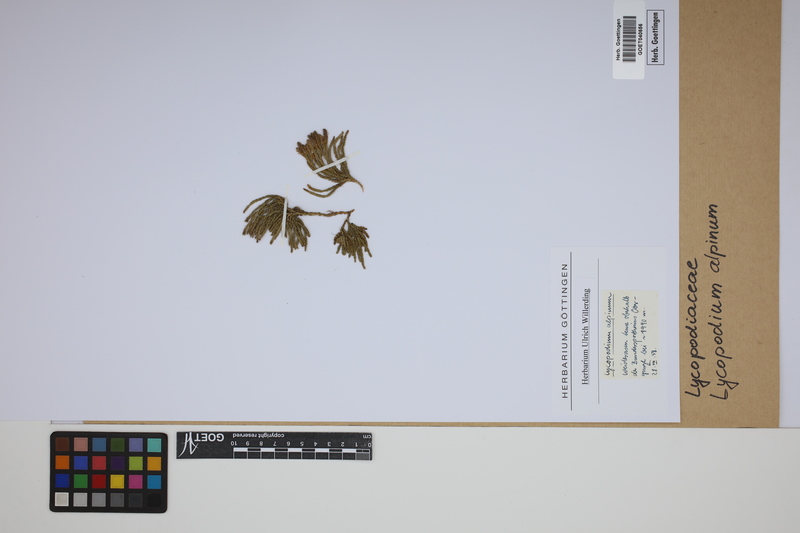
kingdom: Plantae
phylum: Tracheophyta
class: Lycopodiopsida
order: Lycopodiales
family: Lycopodiaceae
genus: Diphasiastrum
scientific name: Diphasiastrum alpinum
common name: Alpine clubmoss
